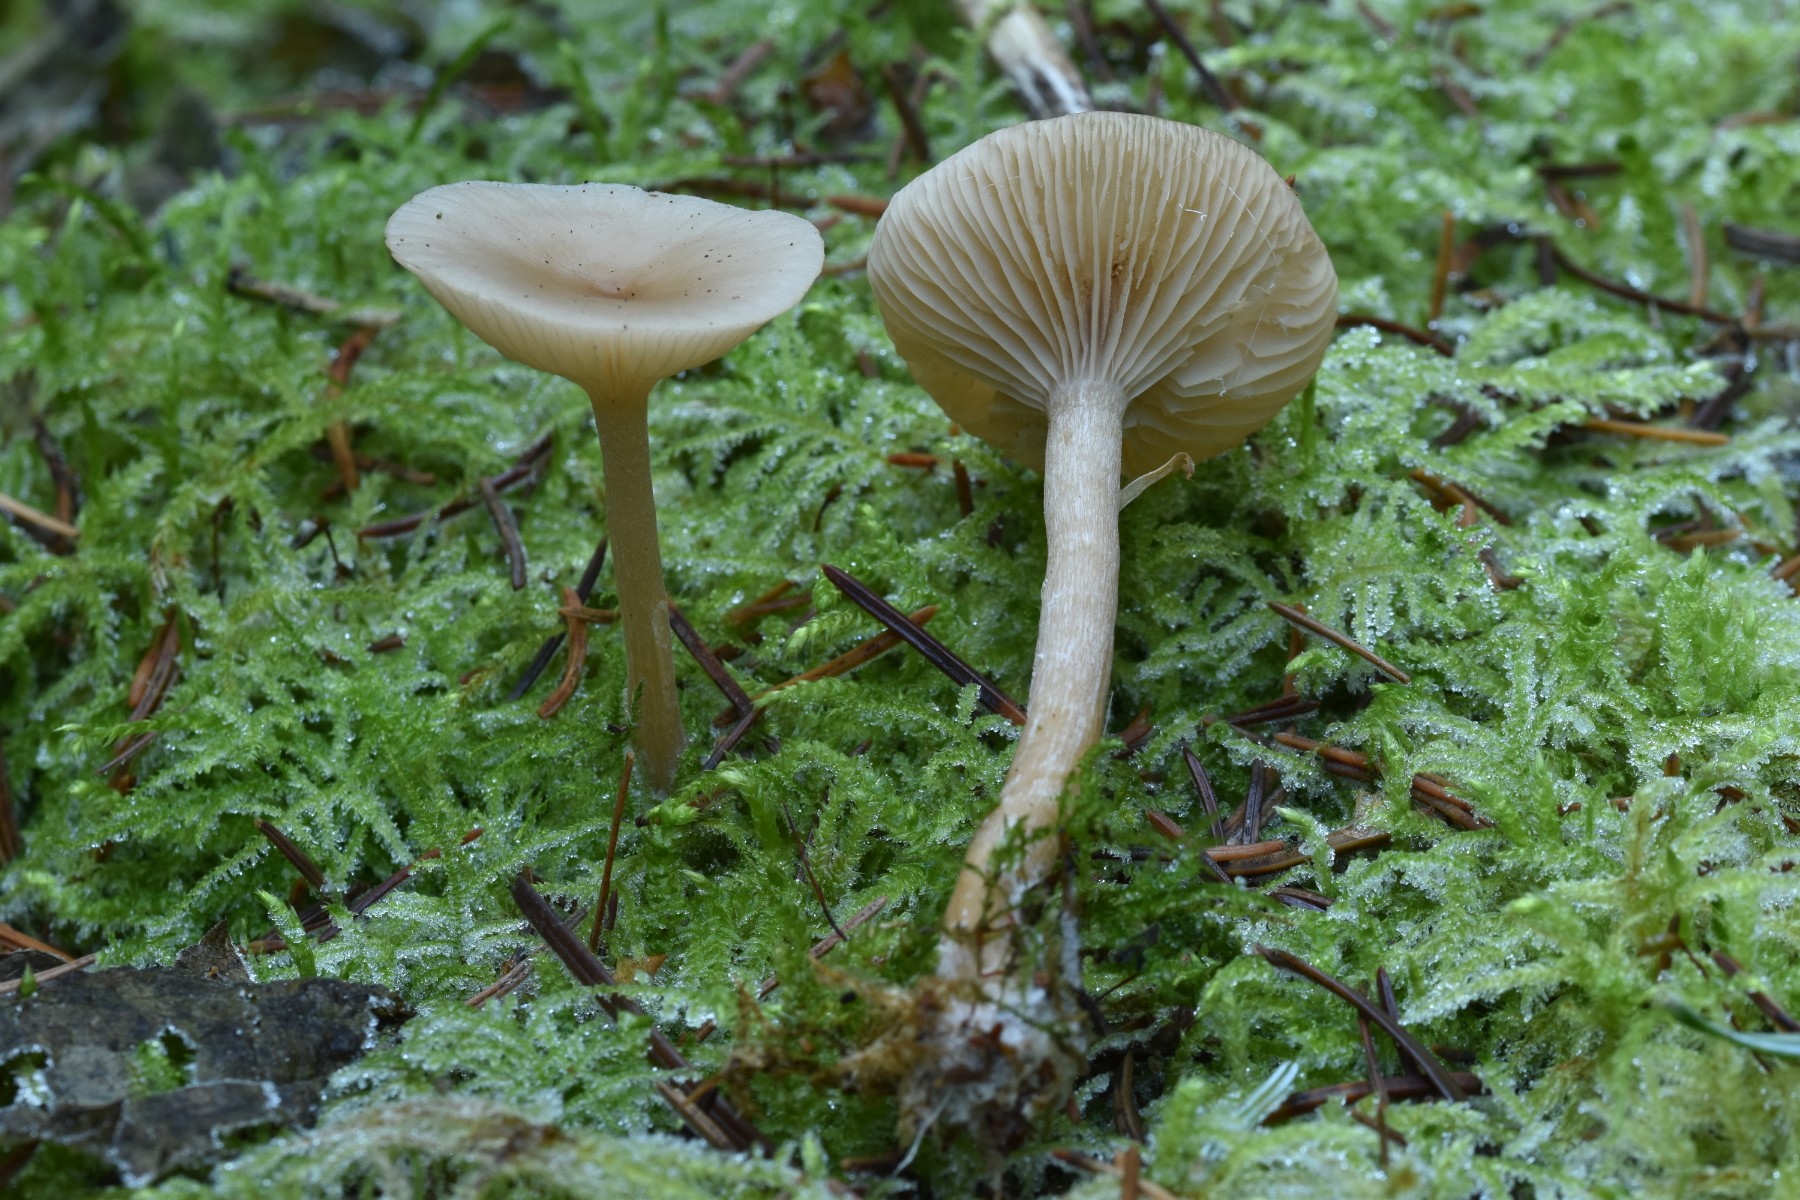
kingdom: Fungi
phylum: Basidiomycota
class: Agaricomycetes
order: Agaricales
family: Tricholomataceae
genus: Clitocybe
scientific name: Clitocybe fragrans
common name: vellugtende tragthat
